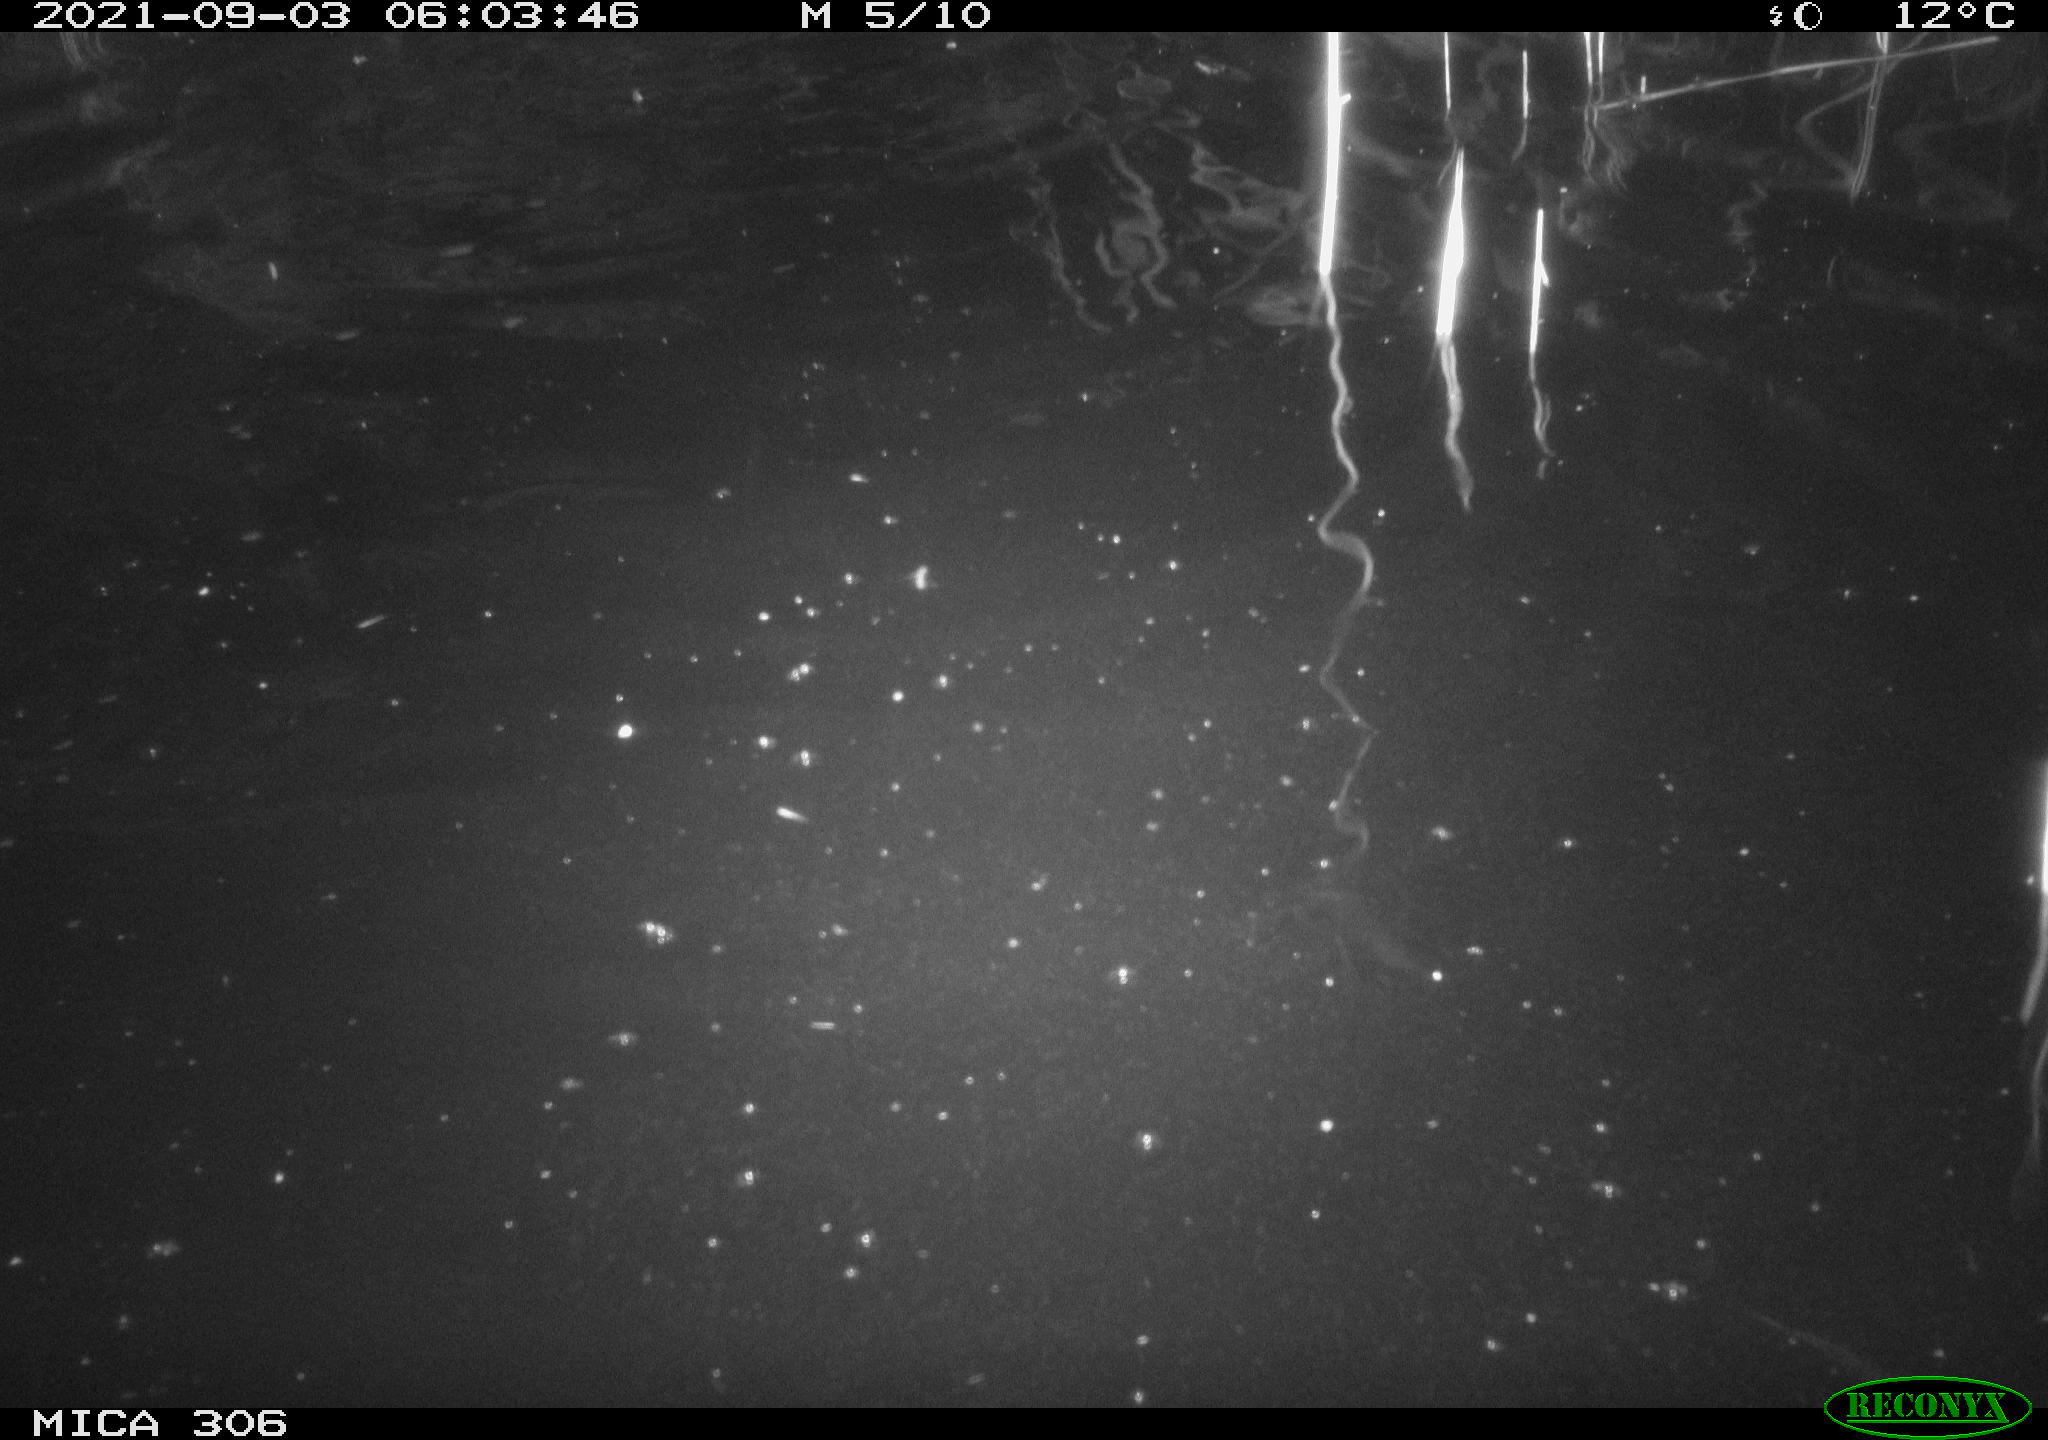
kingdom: Animalia
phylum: Chordata
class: Mammalia
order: Rodentia
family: Cricetidae
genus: Ondatra
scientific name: Ondatra zibethicus
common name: Muskrat
